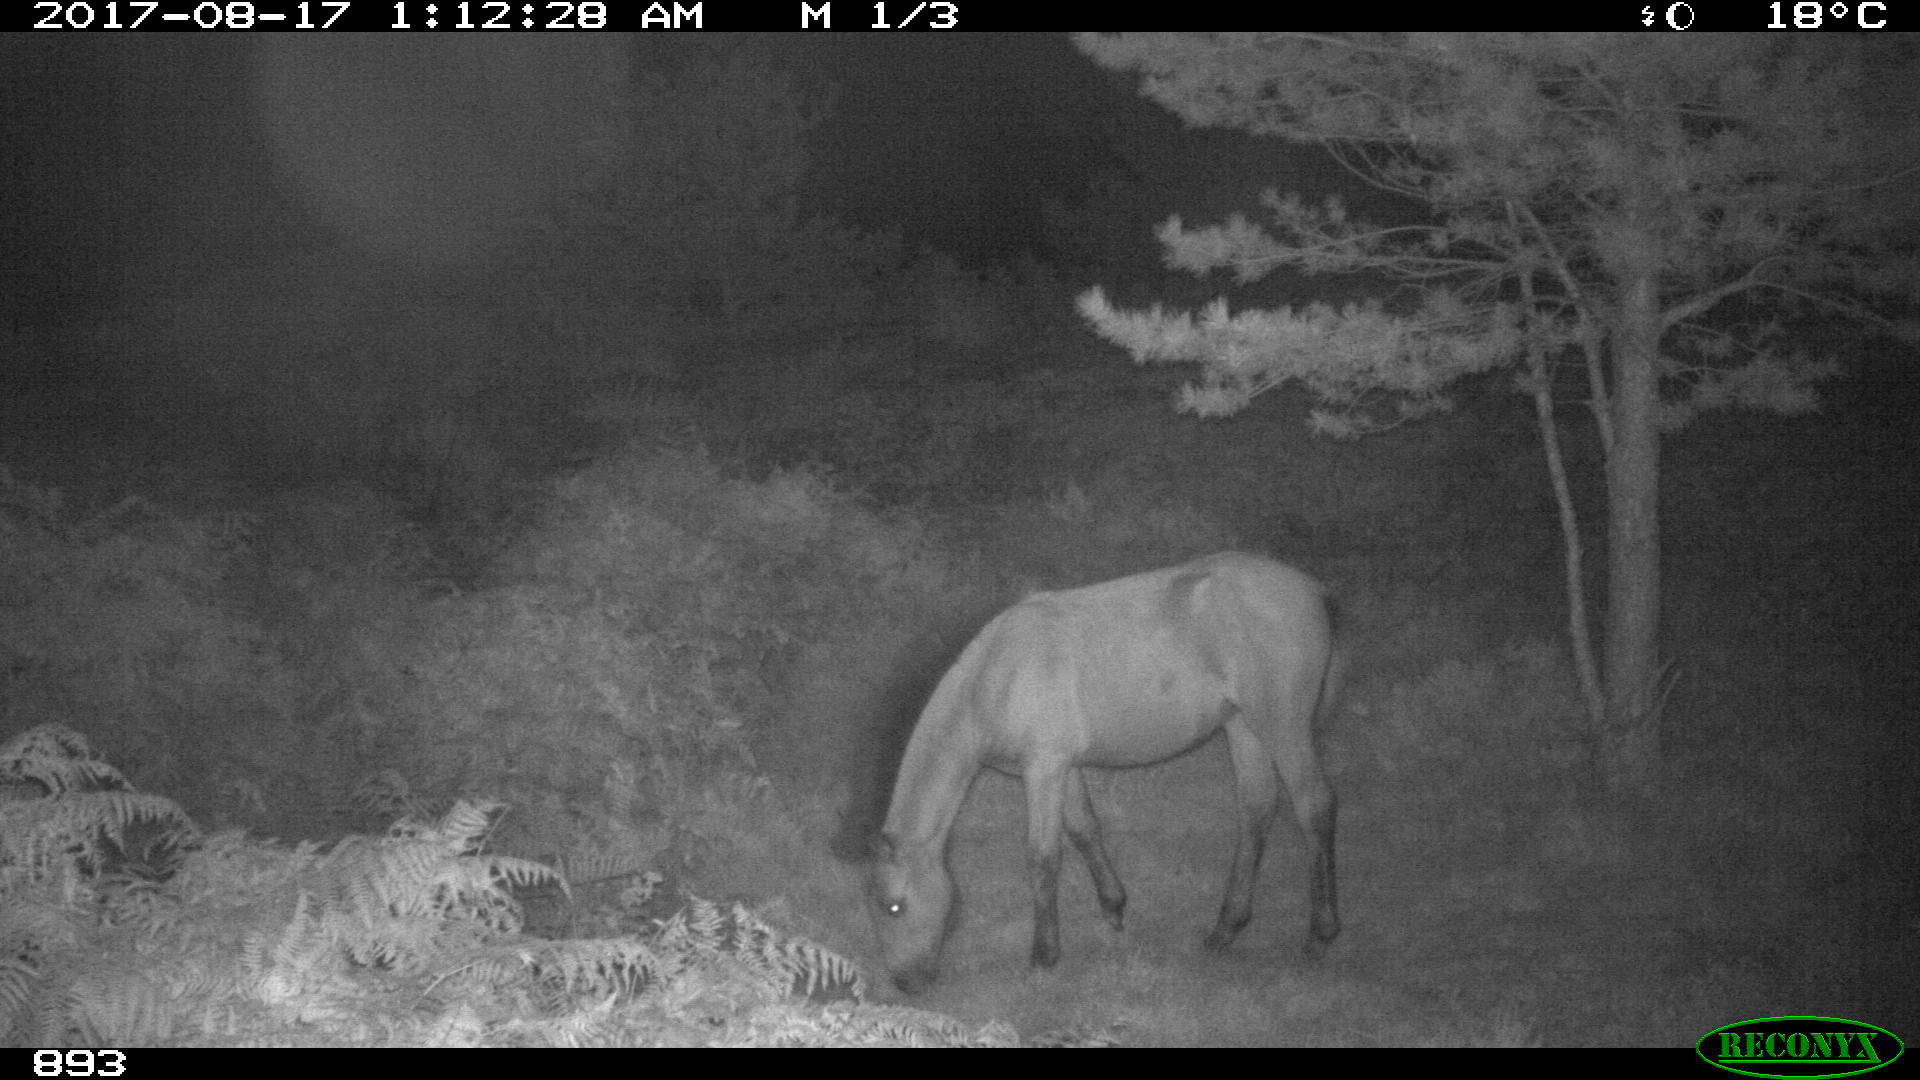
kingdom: Animalia
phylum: Chordata
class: Mammalia
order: Perissodactyla
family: Equidae
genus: Equus
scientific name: Equus caballus
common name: Horse
